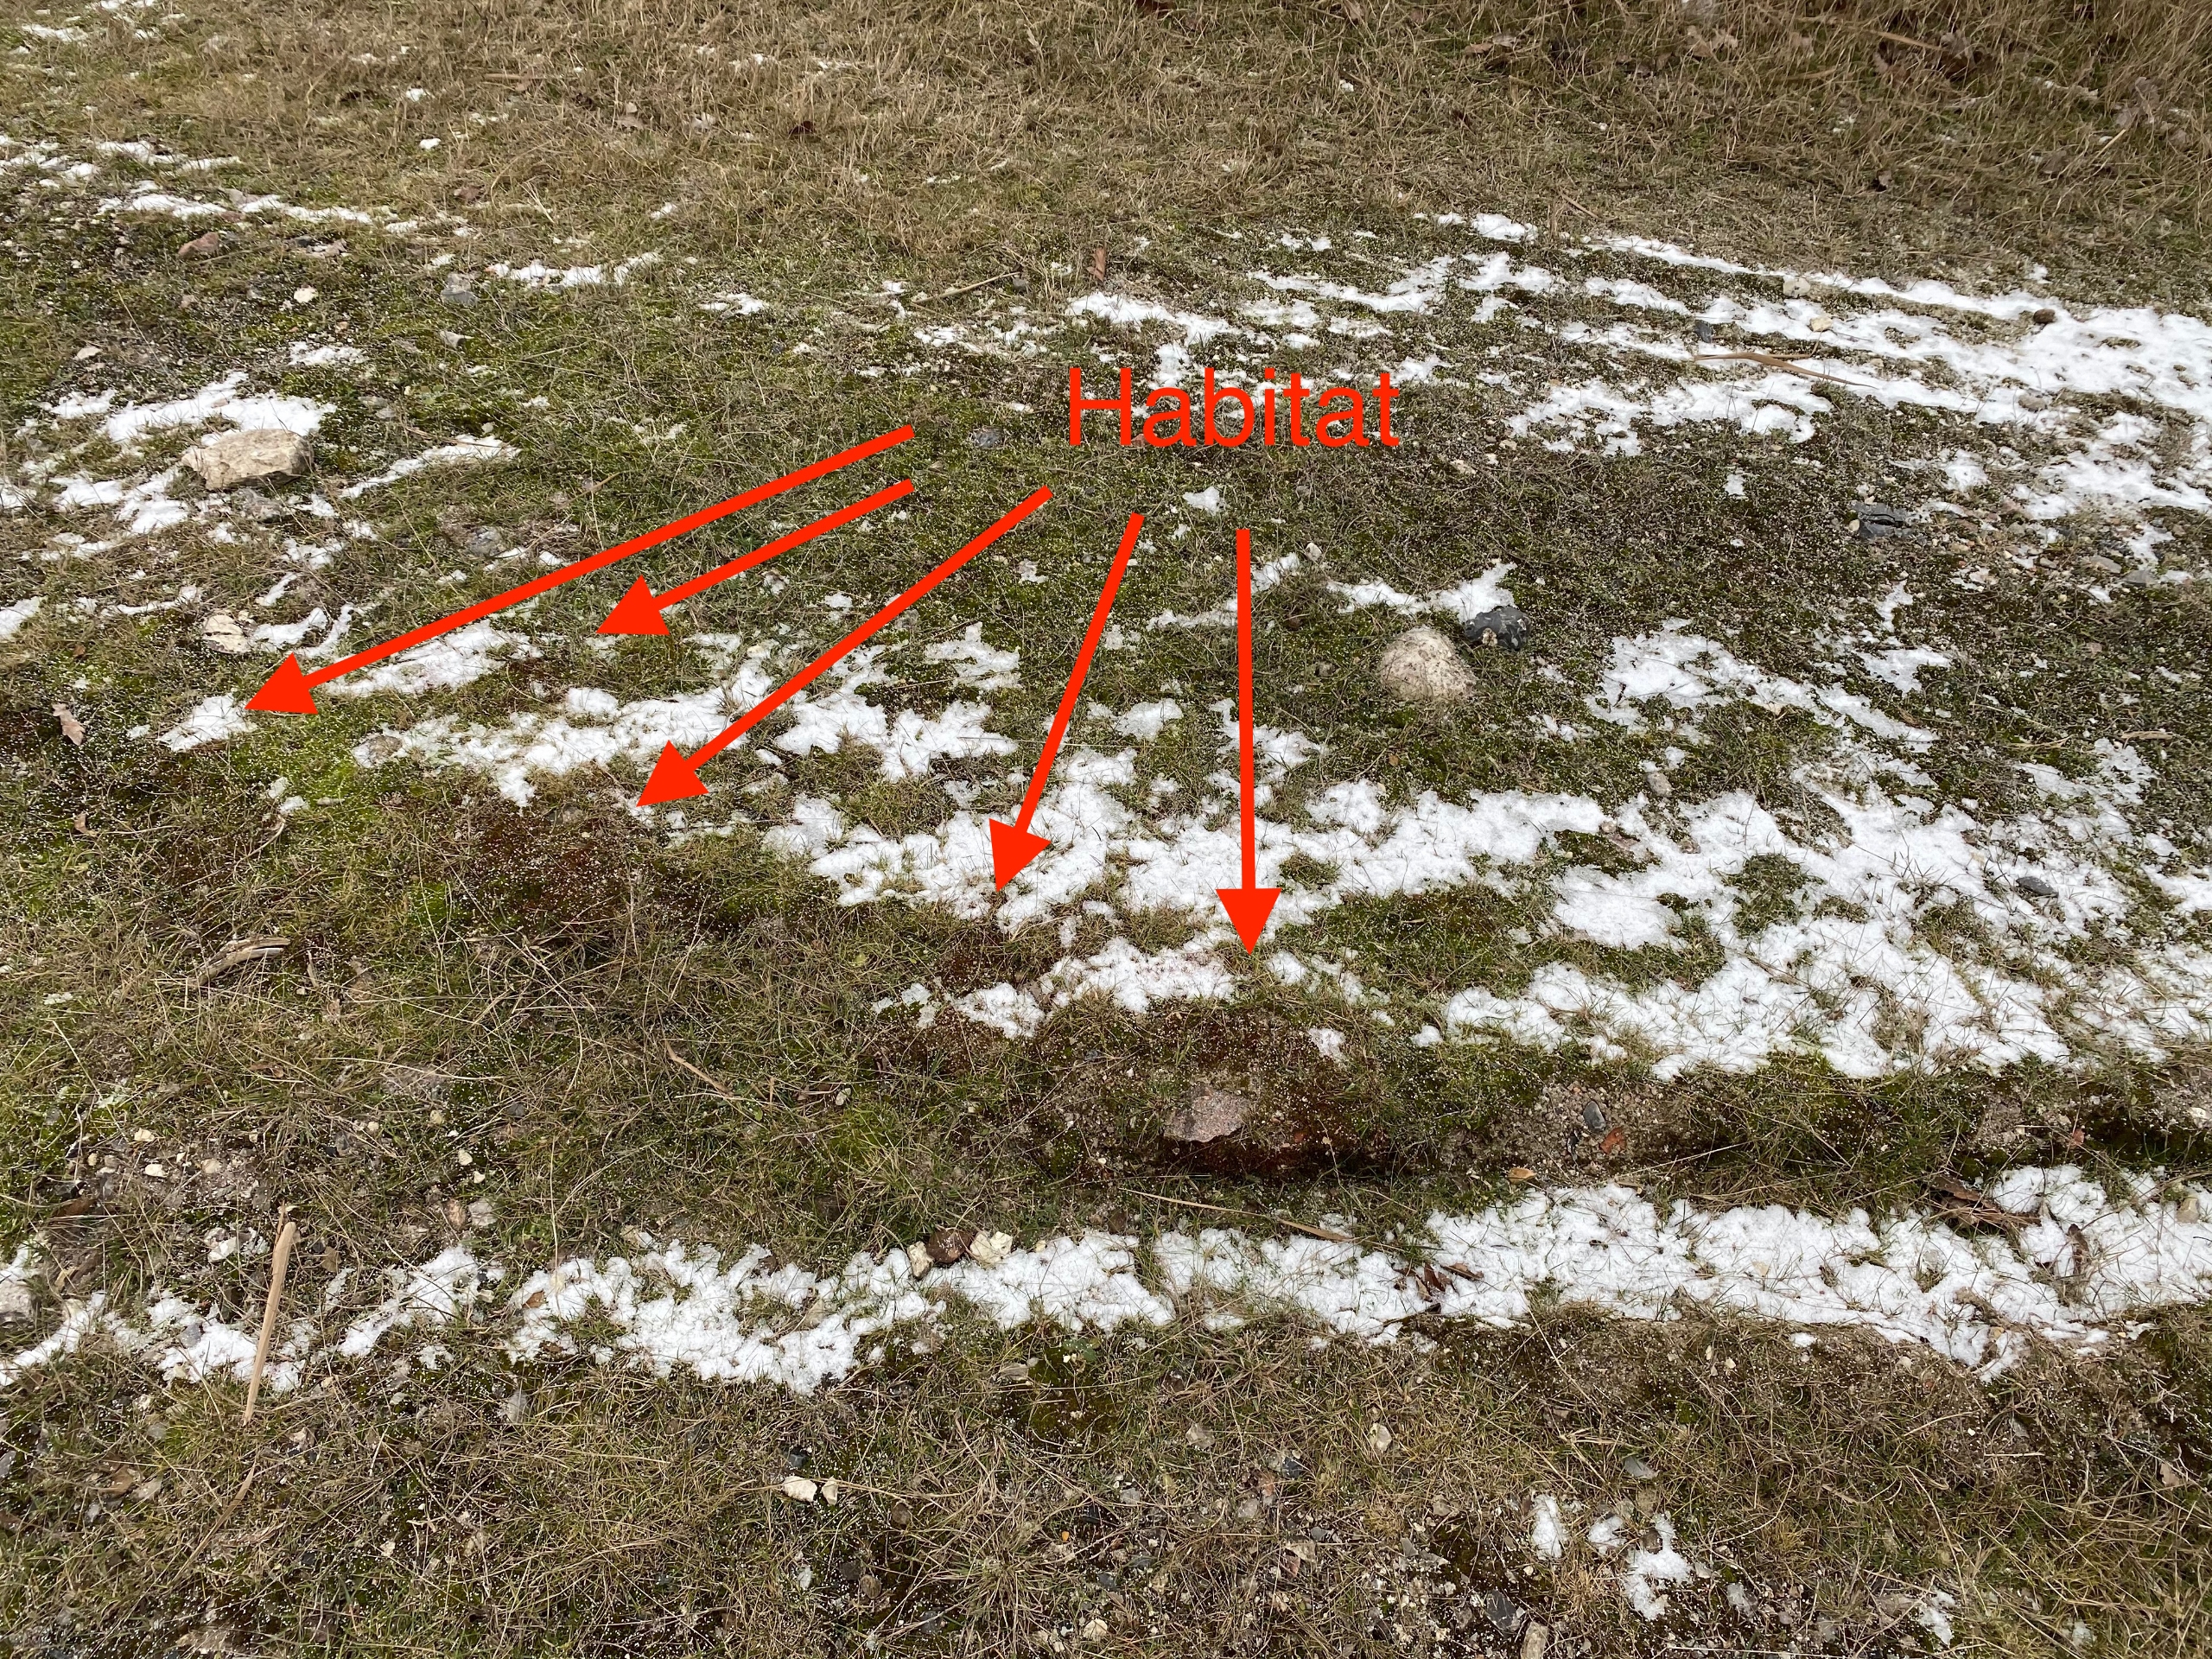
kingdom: Plantae
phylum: Bryophyta
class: Bryopsida
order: Pottiales
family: Pottiaceae
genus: Aloina
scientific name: Aloina aloides
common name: Spidsbladet tøffelmos
